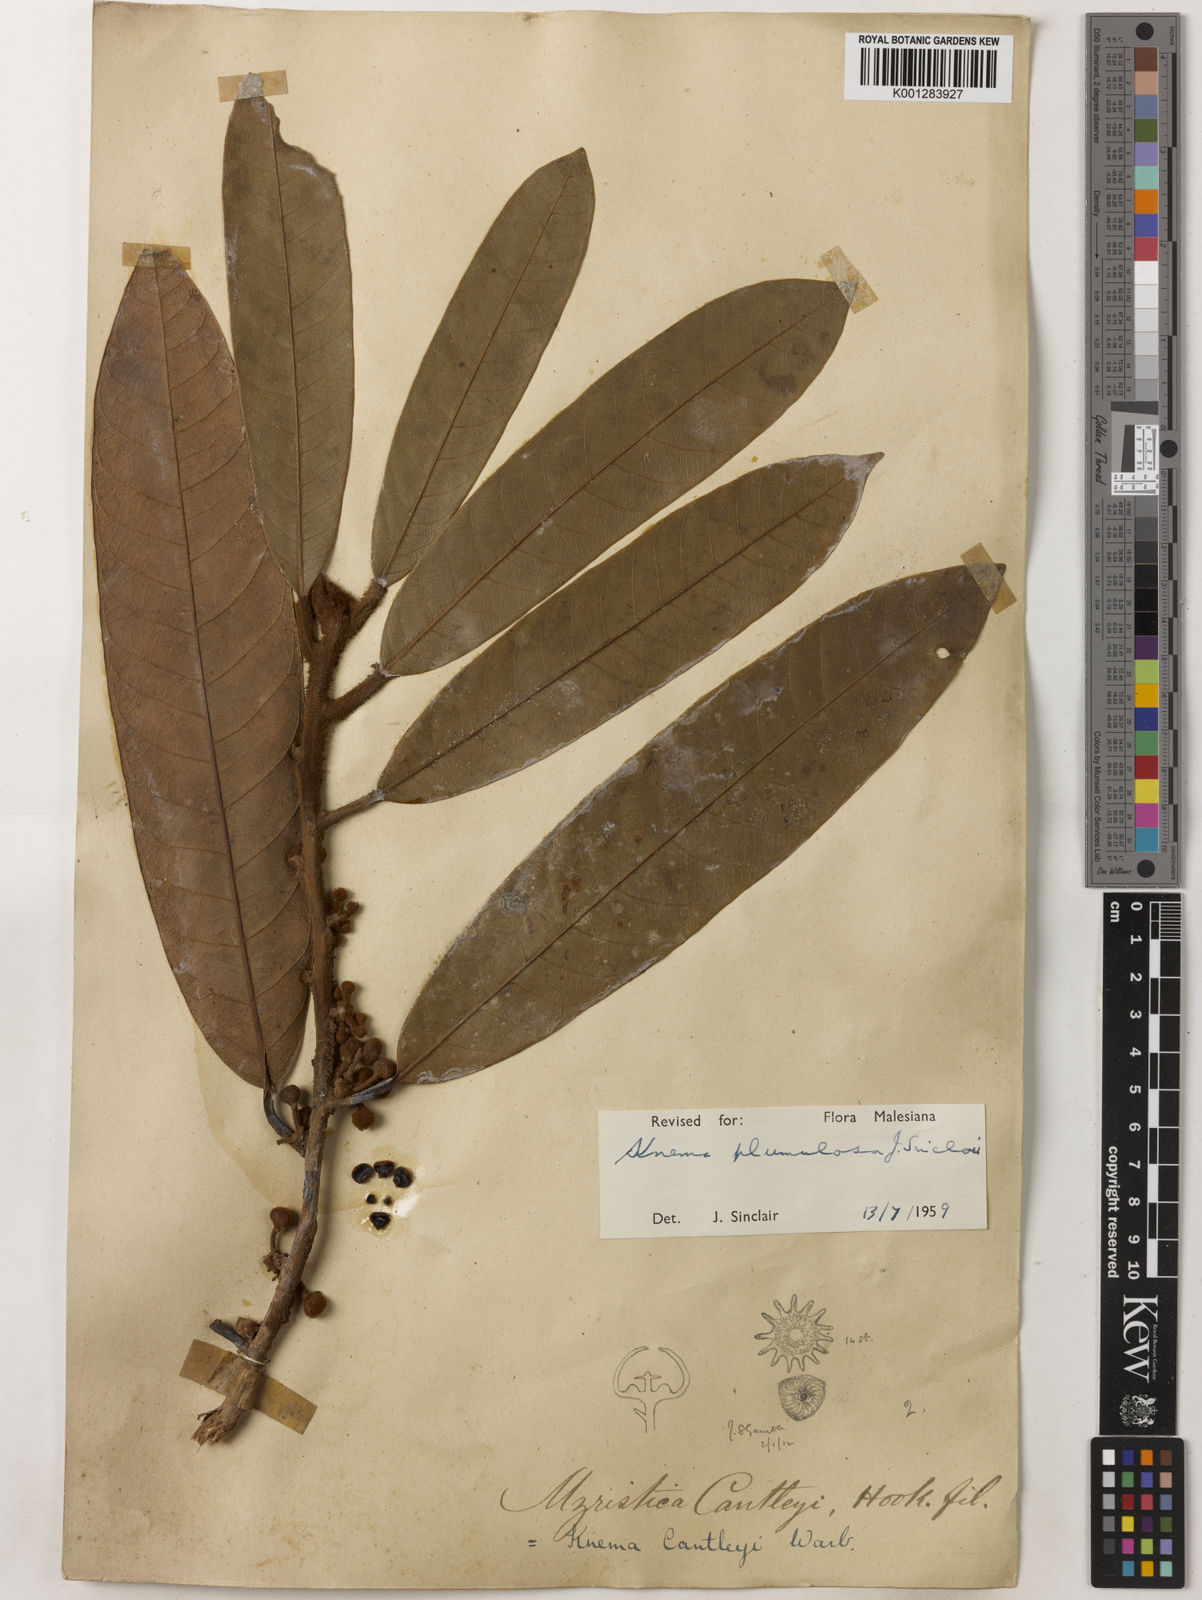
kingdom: Plantae
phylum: Tracheophyta
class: Magnoliopsida
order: Magnoliales
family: Myristicaceae
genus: Knema
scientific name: Knema plumulosa
